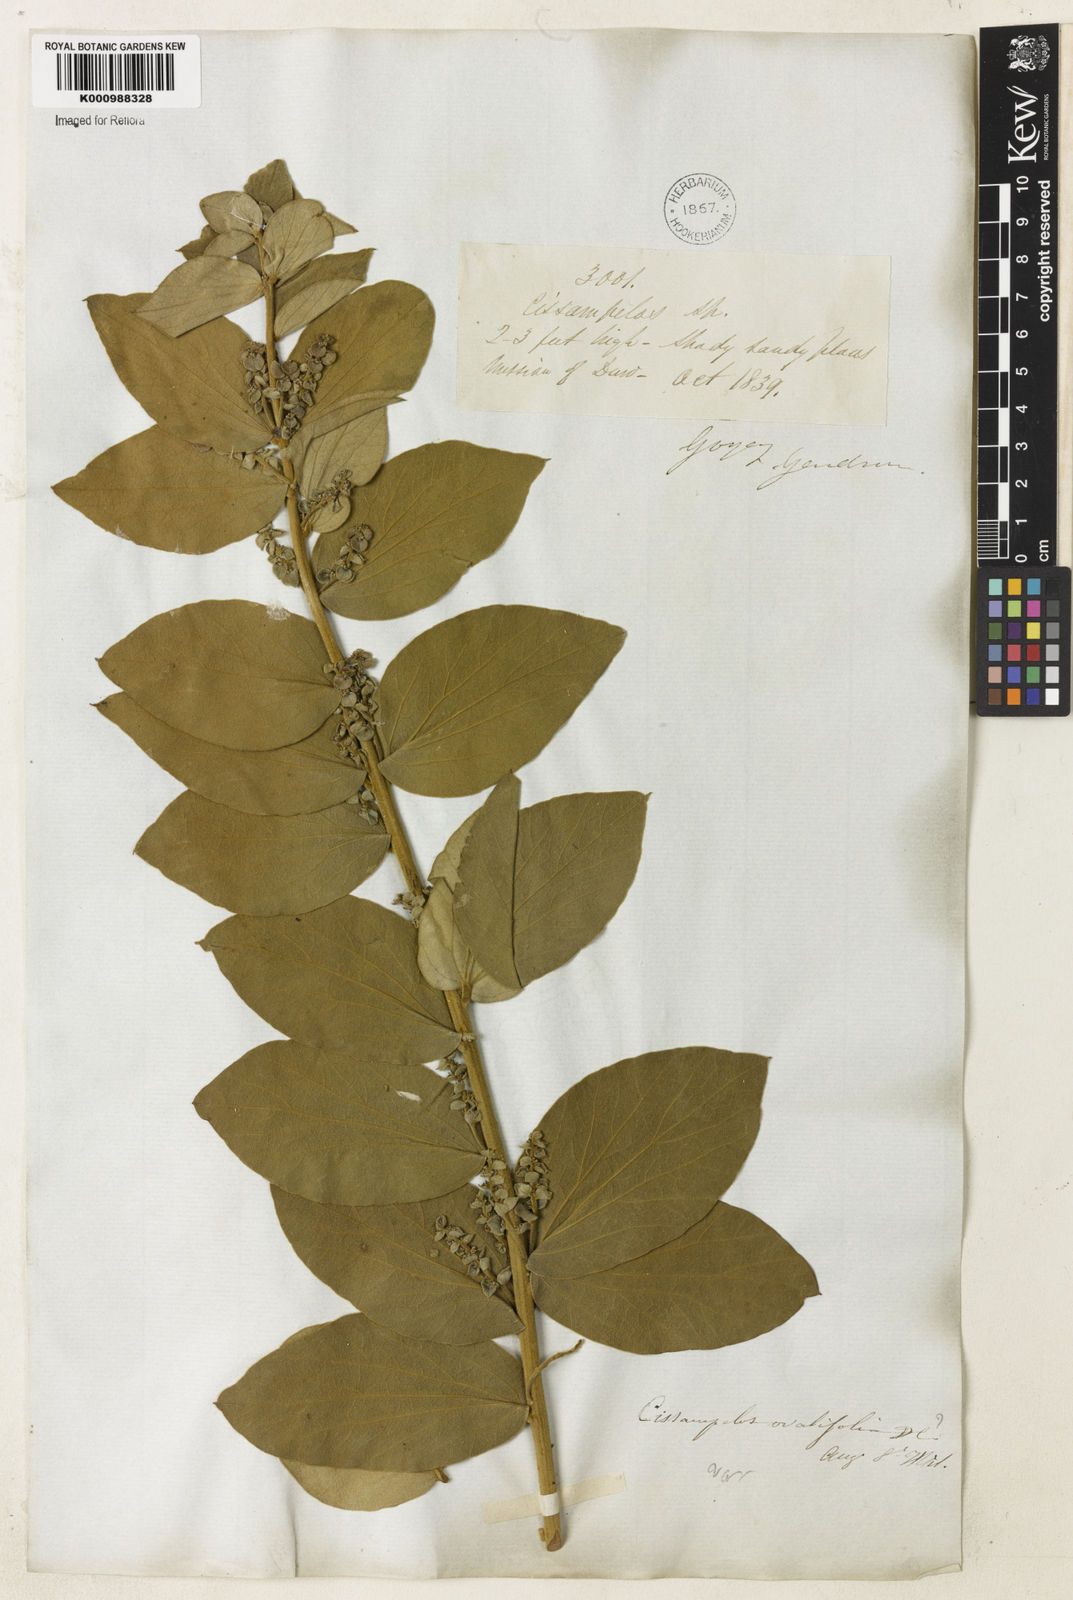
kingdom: Plantae
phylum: Tracheophyta
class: Magnoliopsida
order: Ranunculales
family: Menispermaceae
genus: Cissampelos
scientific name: Cissampelos ovalifolia
